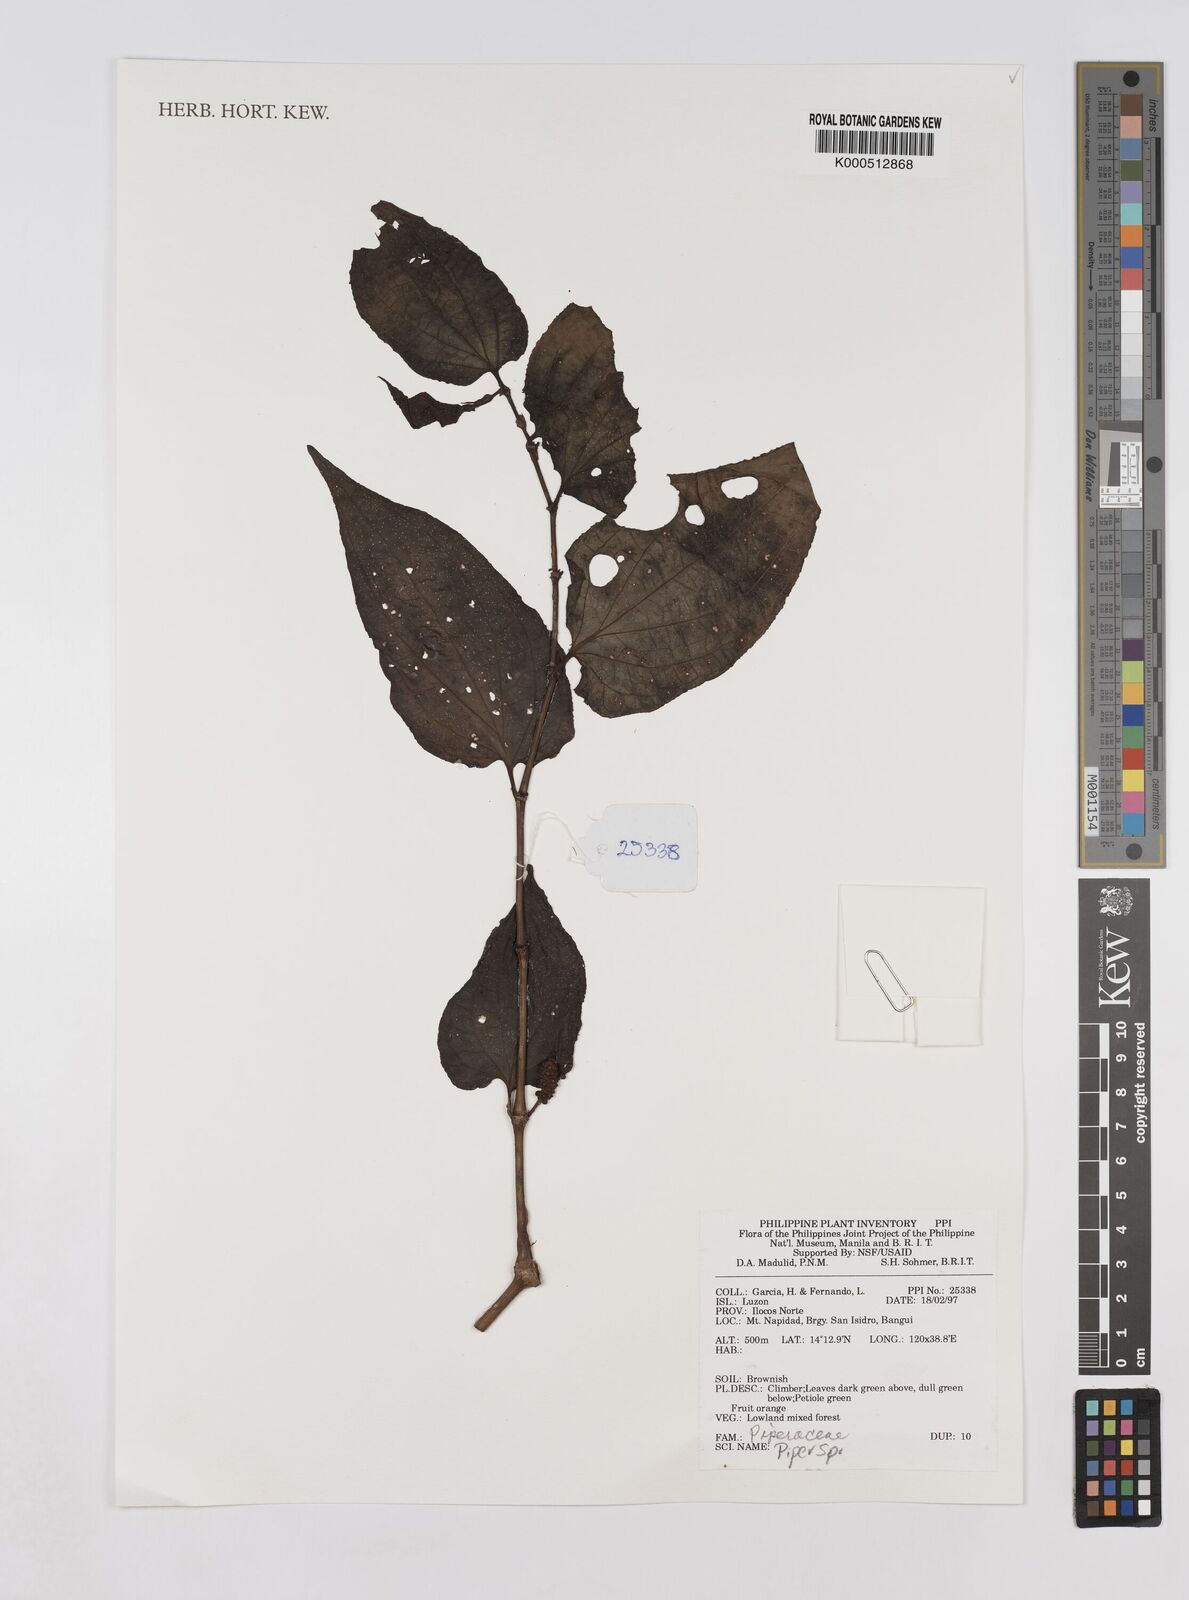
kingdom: Plantae
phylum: Tracheophyta
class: Magnoliopsida
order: Piperales
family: Piperaceae
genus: Piper
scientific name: Piper
